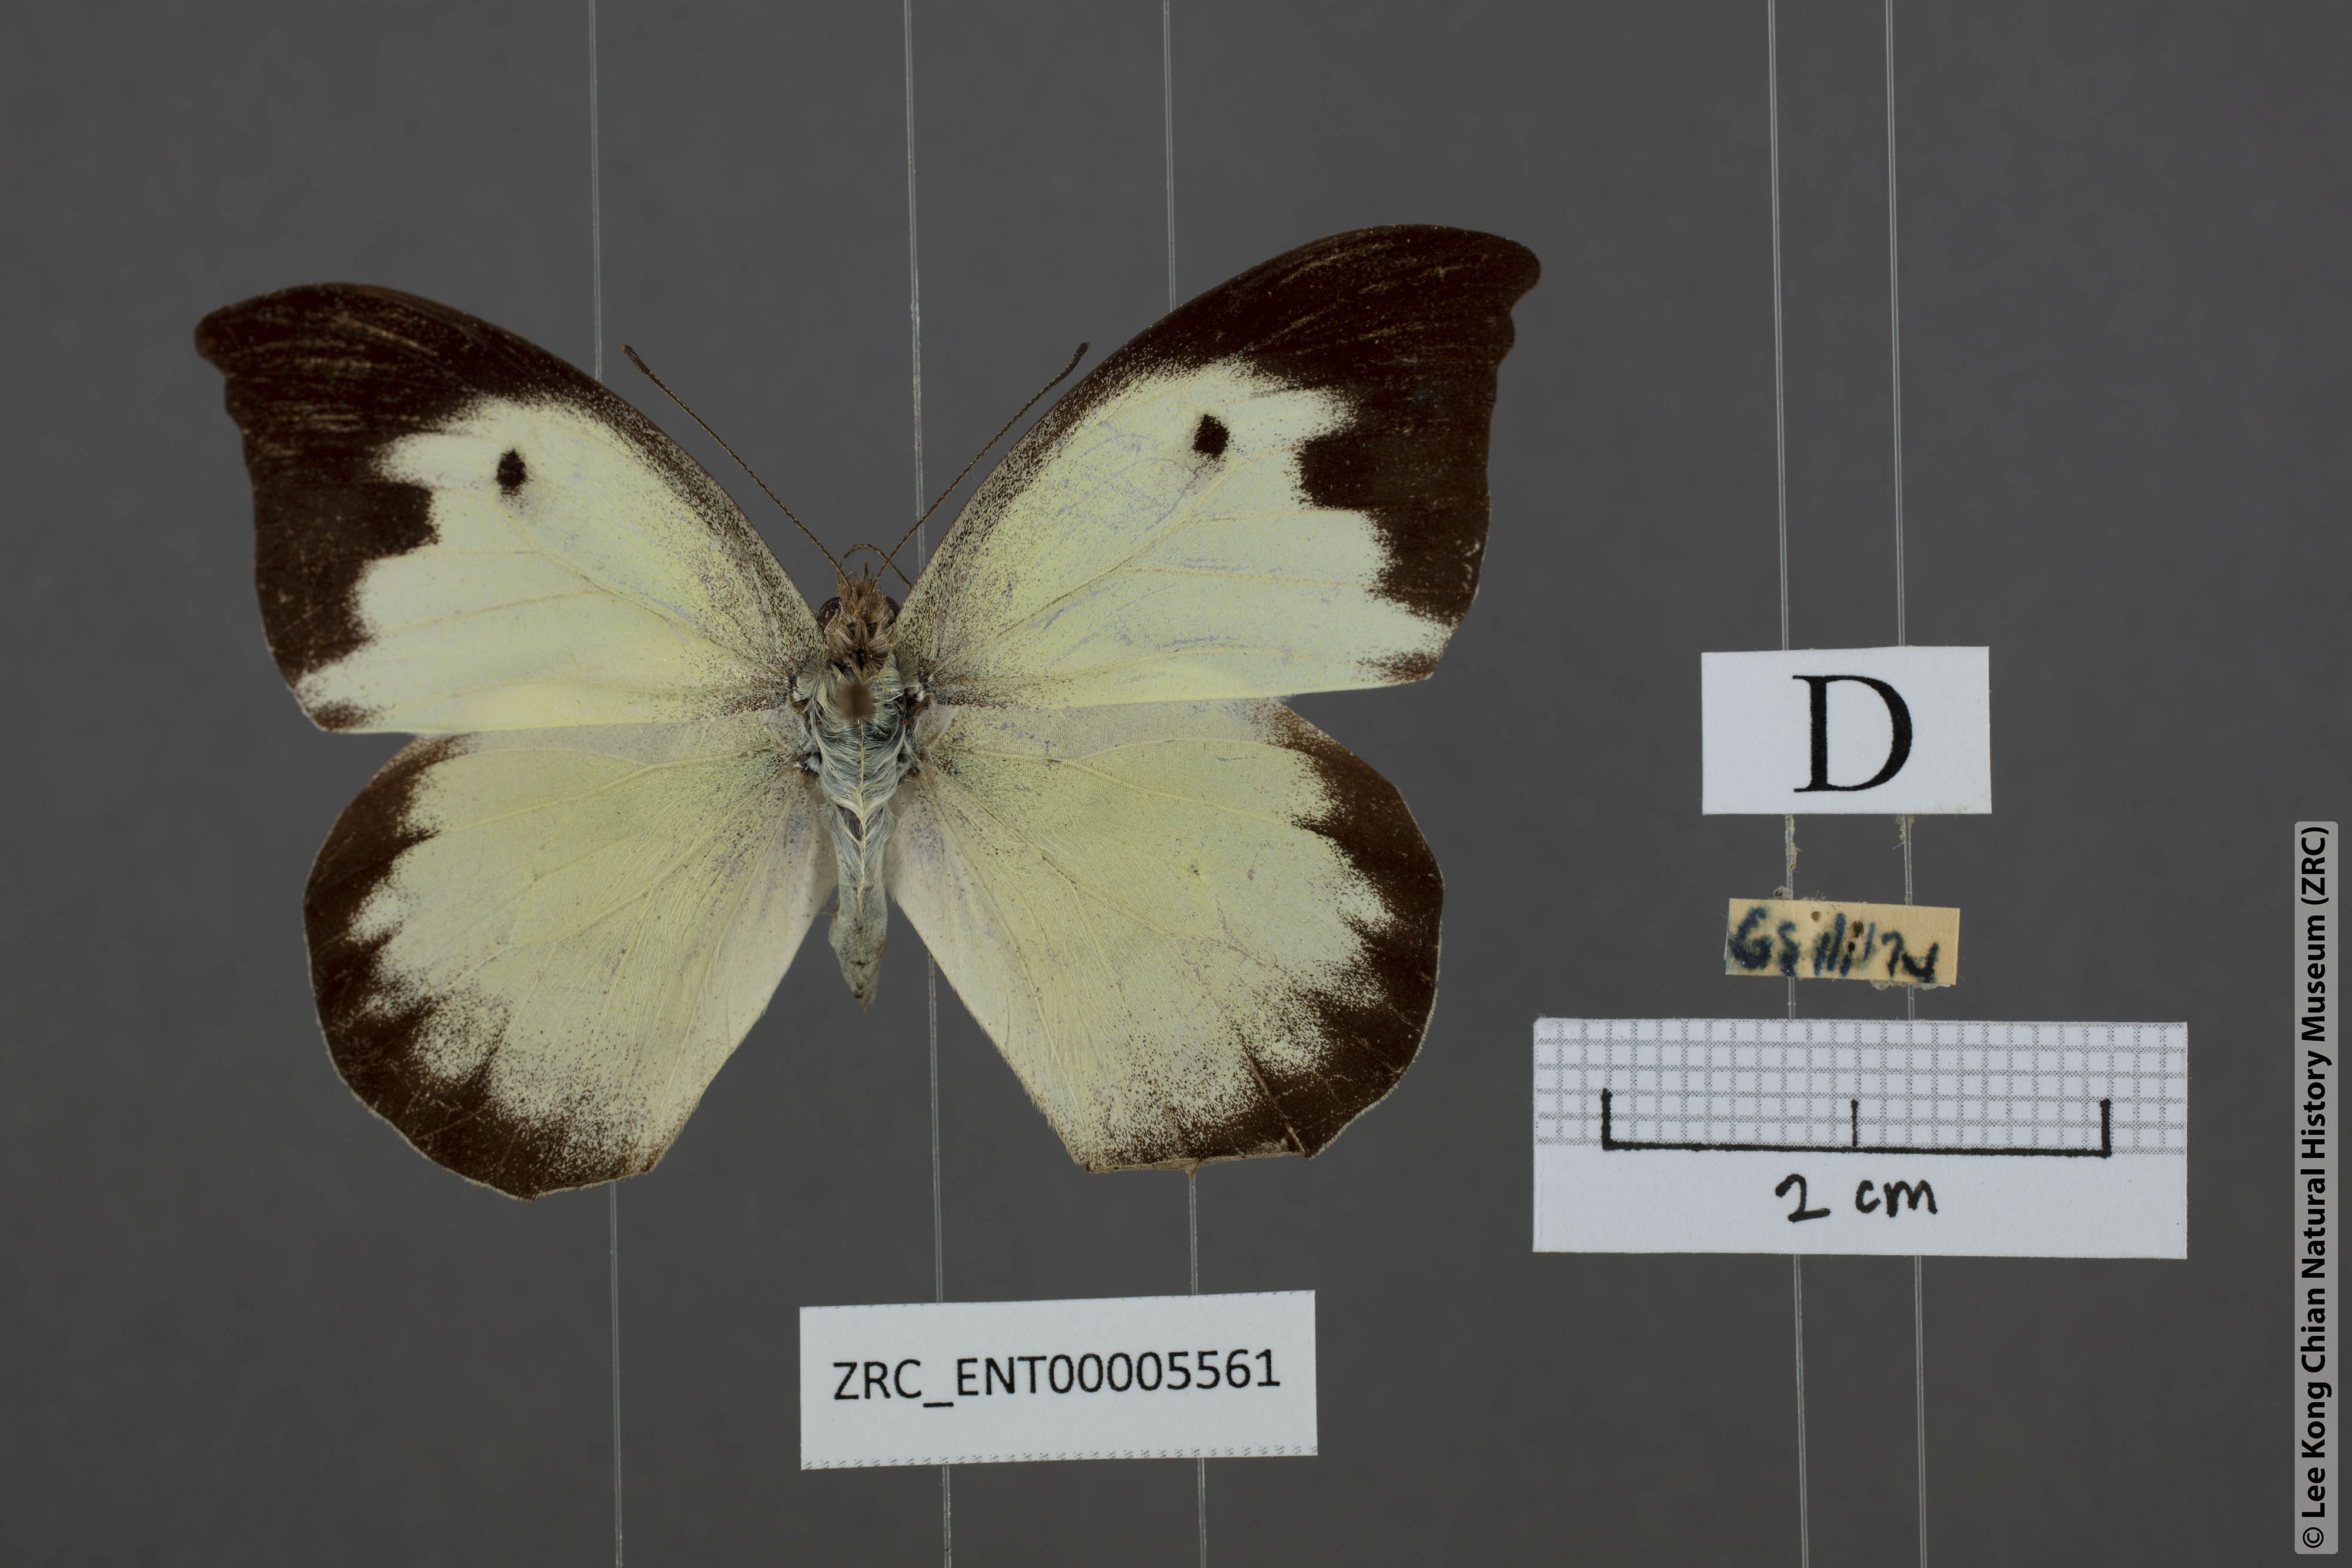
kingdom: Animalia
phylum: Arthropoda
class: Insecta
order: Lepidoptera
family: Pieridae
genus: Appias
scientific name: Appias lalassis
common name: Burmese puffin
